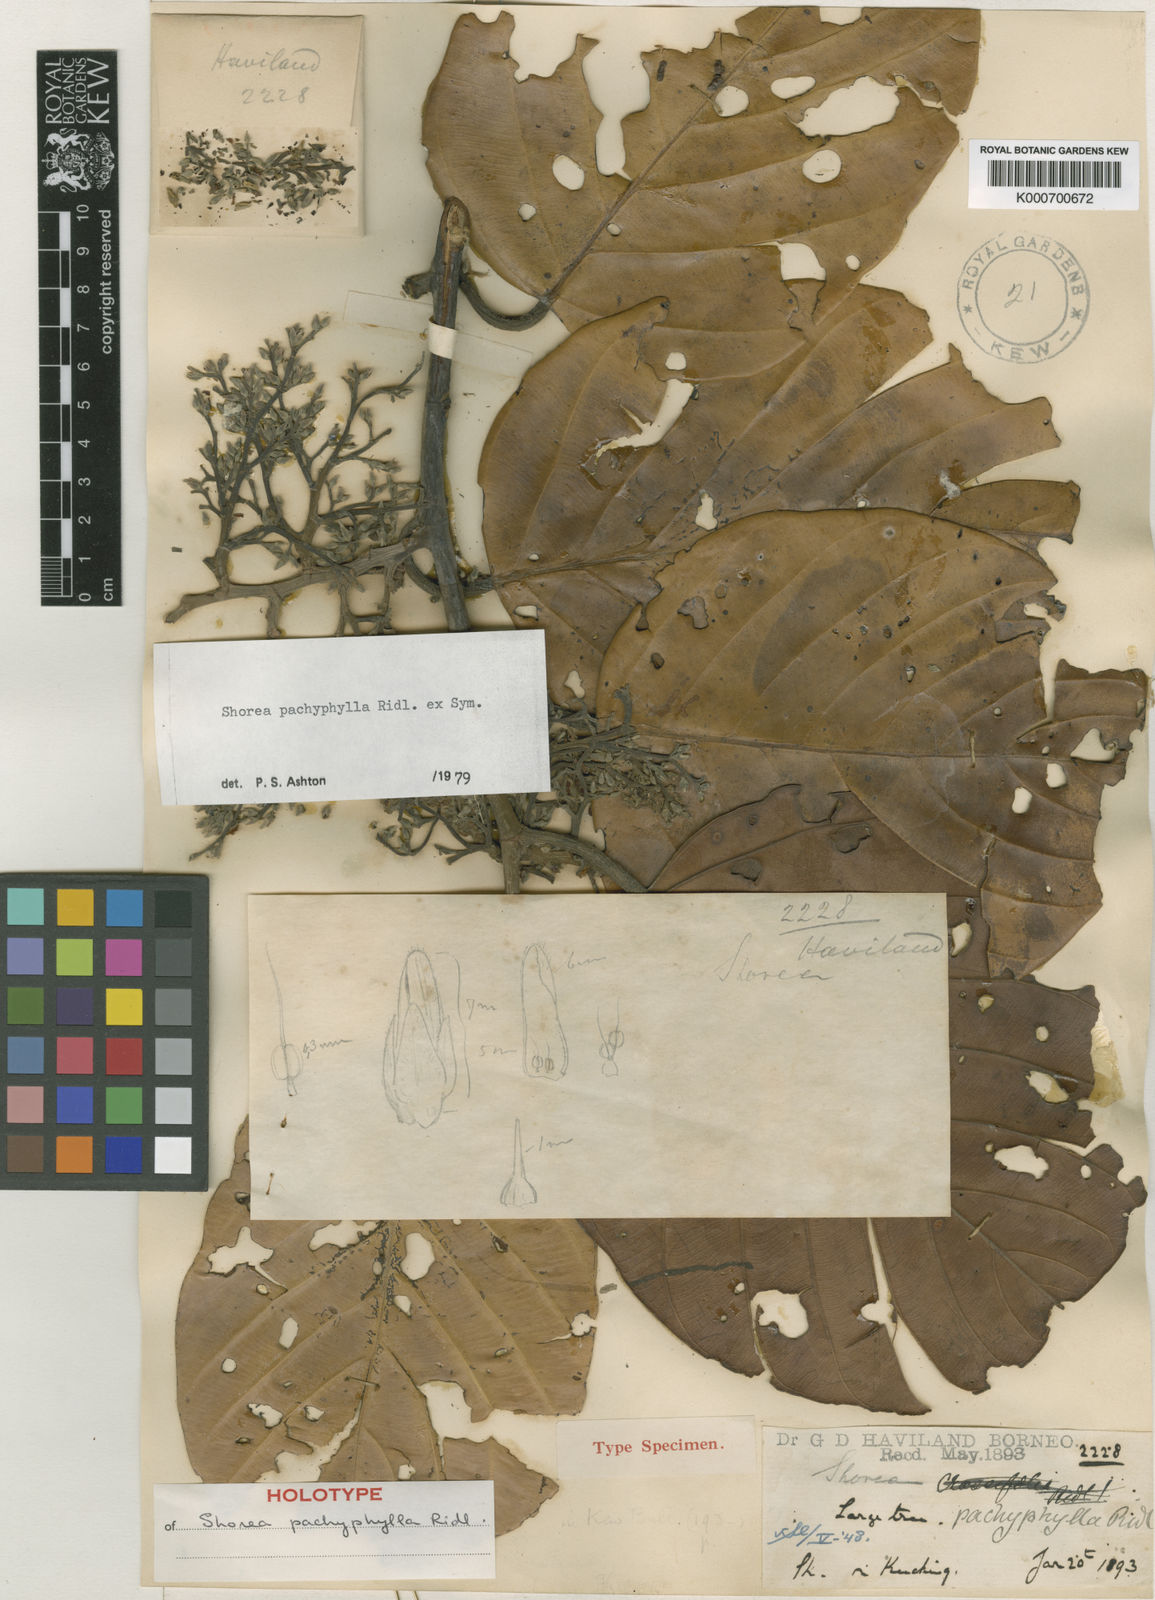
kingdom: Plantae
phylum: Tracheophyta
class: Magnoliopsida
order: Malvales
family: Dipterocarpaceae
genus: Shorea
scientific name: Shorea pachyphylla
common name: Dark red meranti
